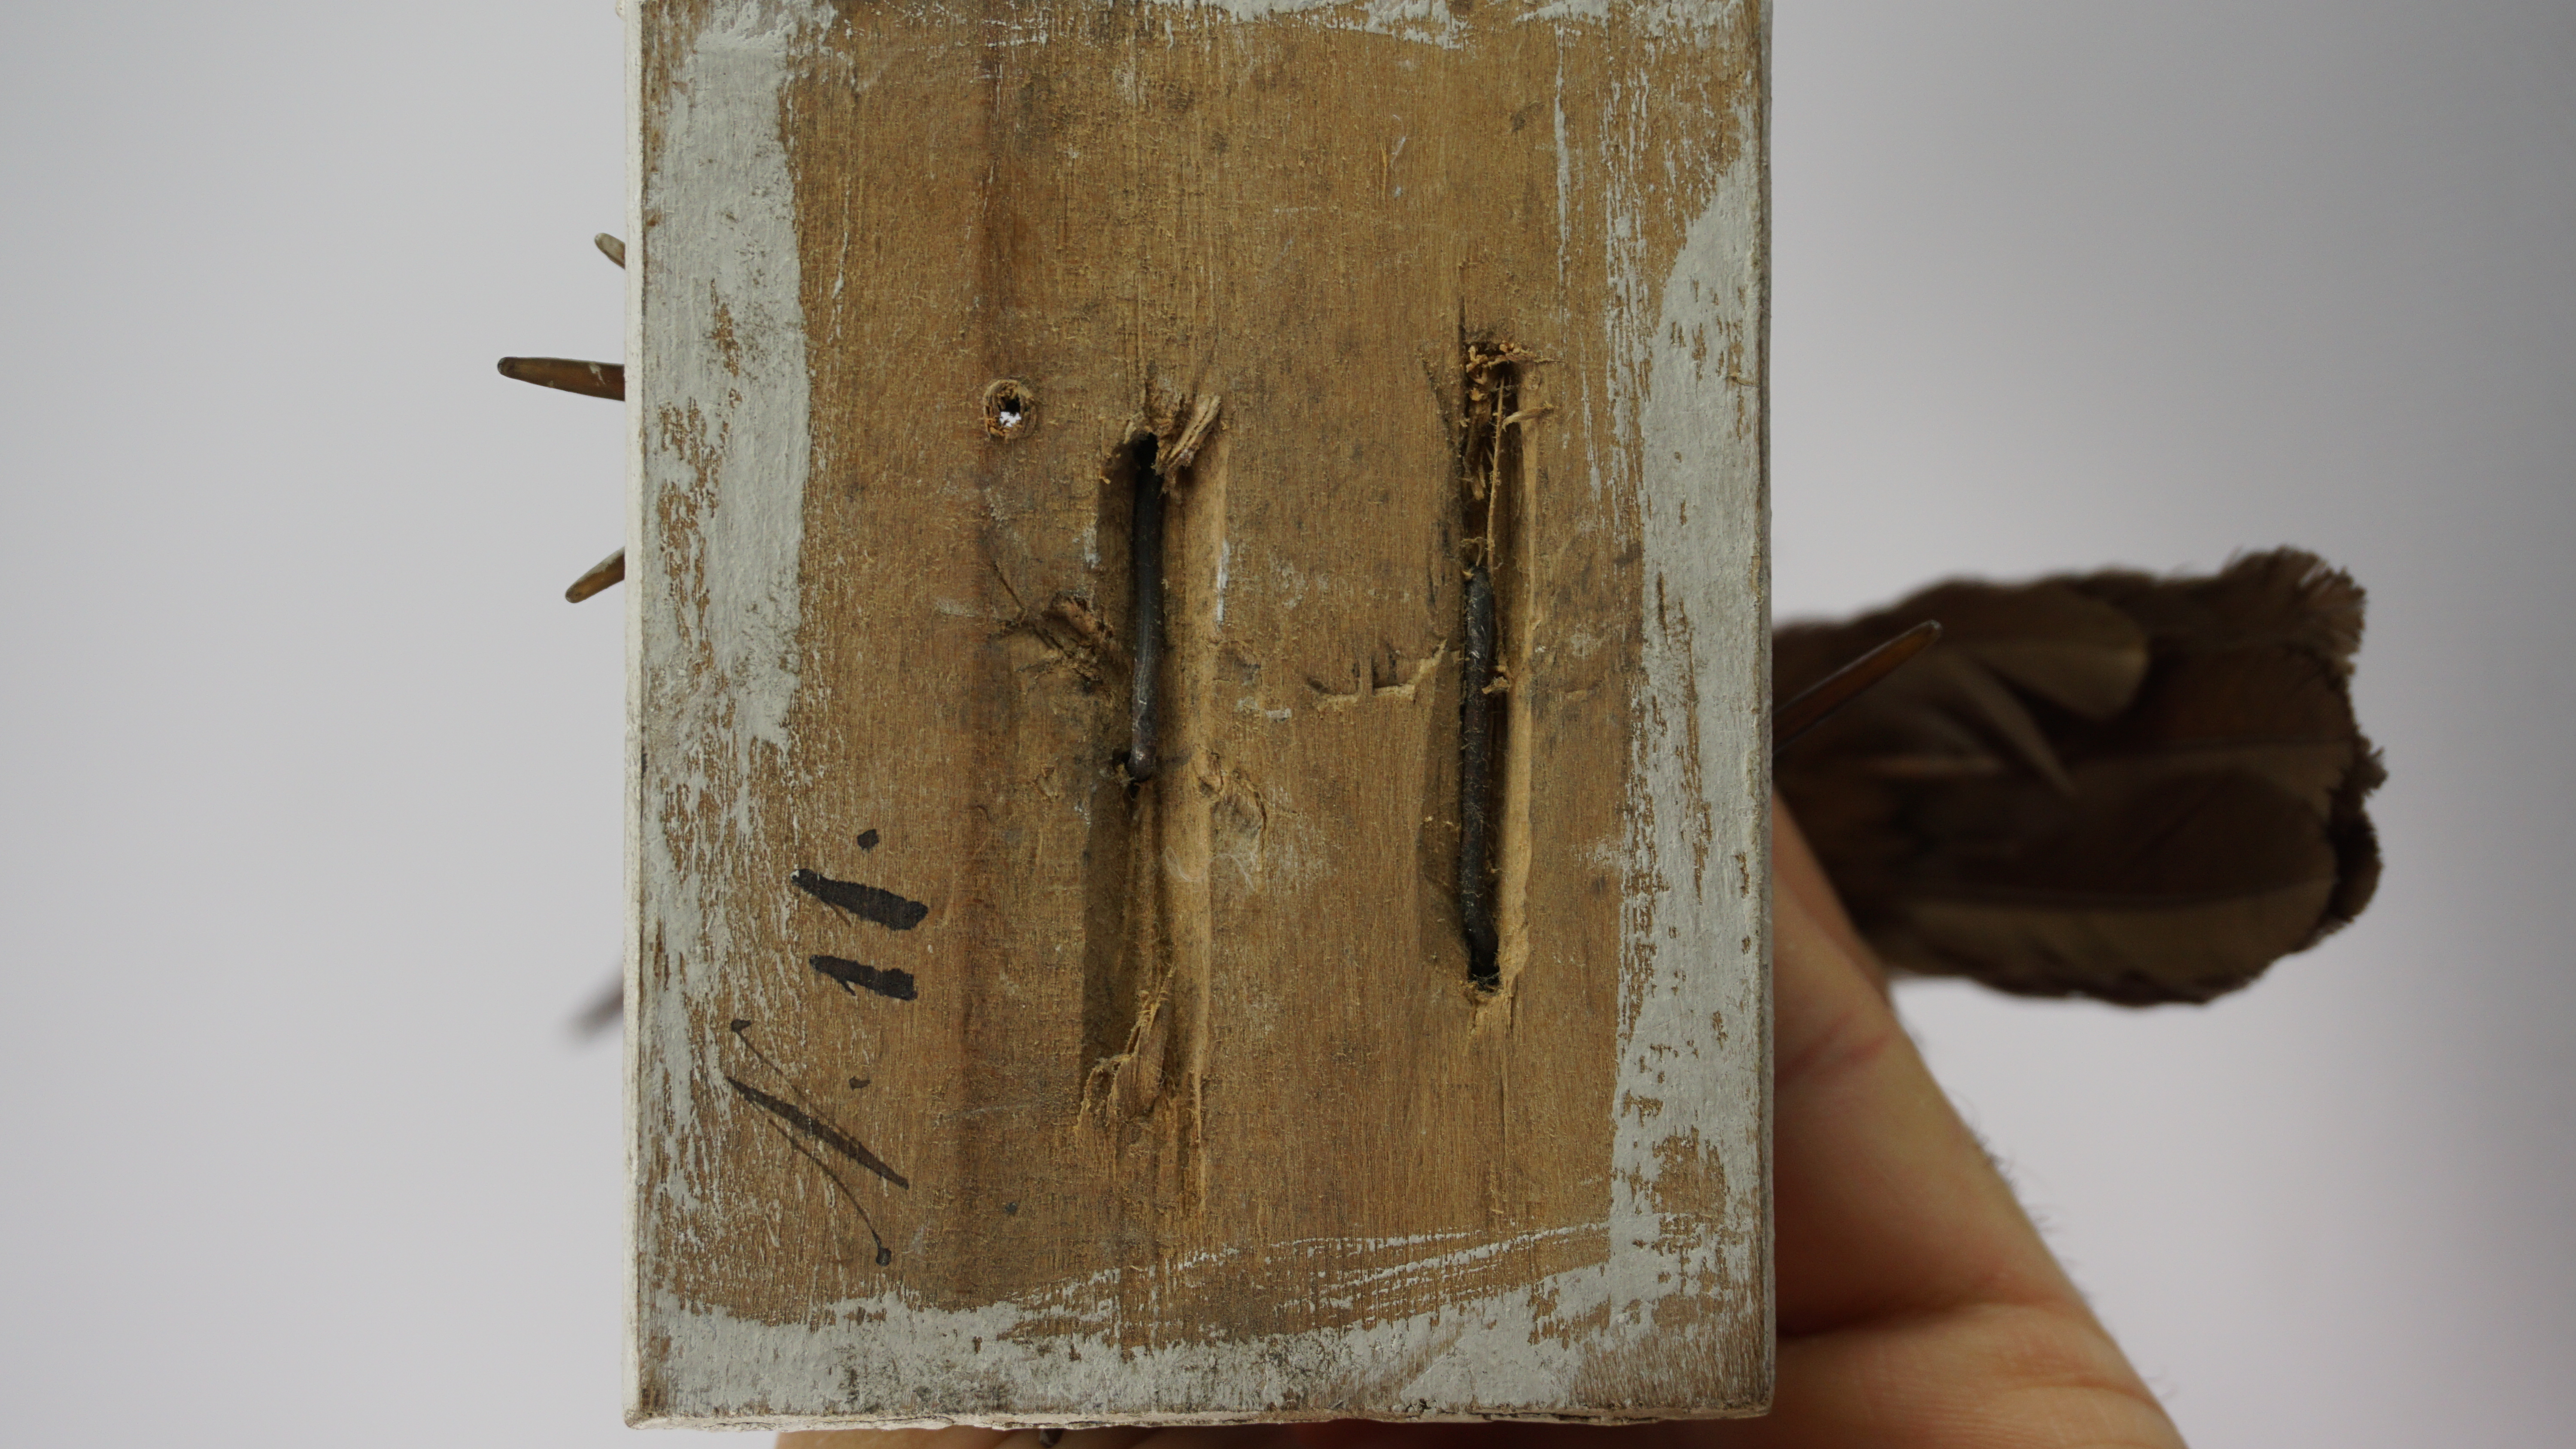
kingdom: Animalia
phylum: Chordata
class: Aves
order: Passeriformes
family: Rhinocryptidae
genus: Pteroptochos
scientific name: Pteroptochos megapodius
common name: Moustached turca
